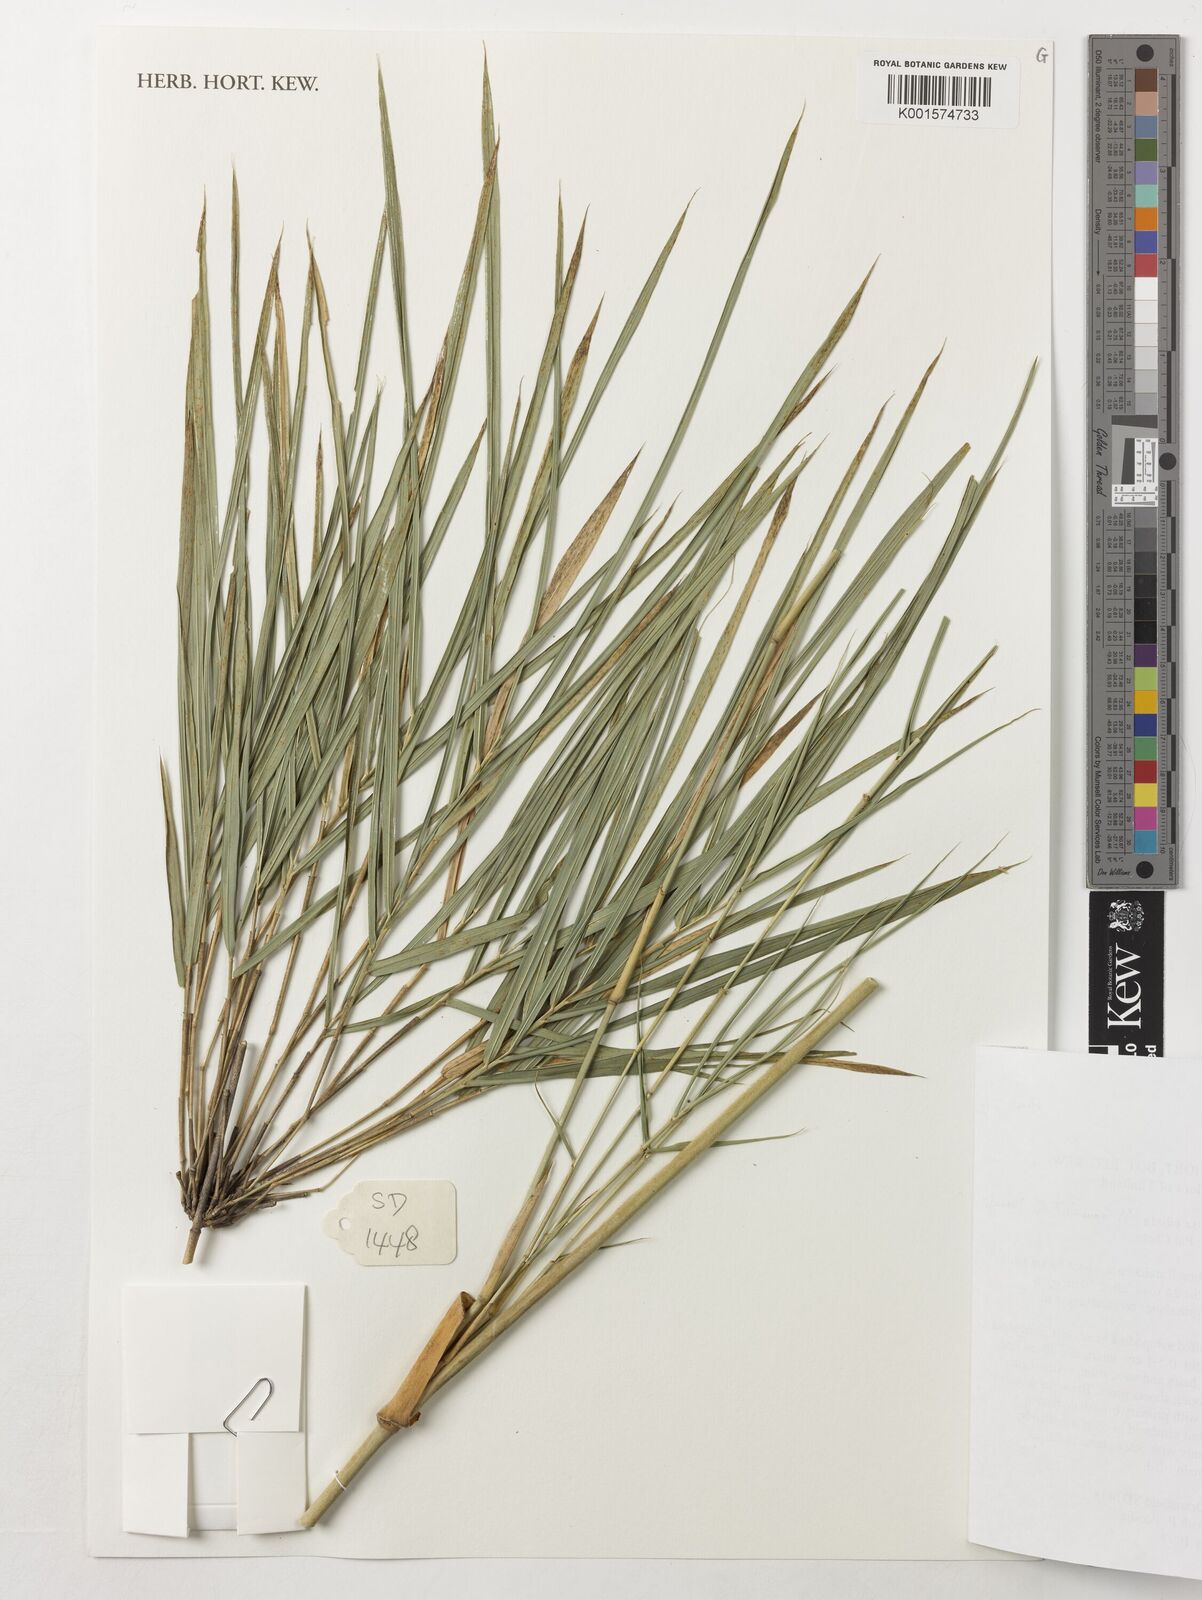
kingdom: Plantae
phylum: Tracheophyta
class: Liliopsida
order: Poales
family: Poaceae
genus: Vietnamosasa
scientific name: Vietnamosasa ciliata
